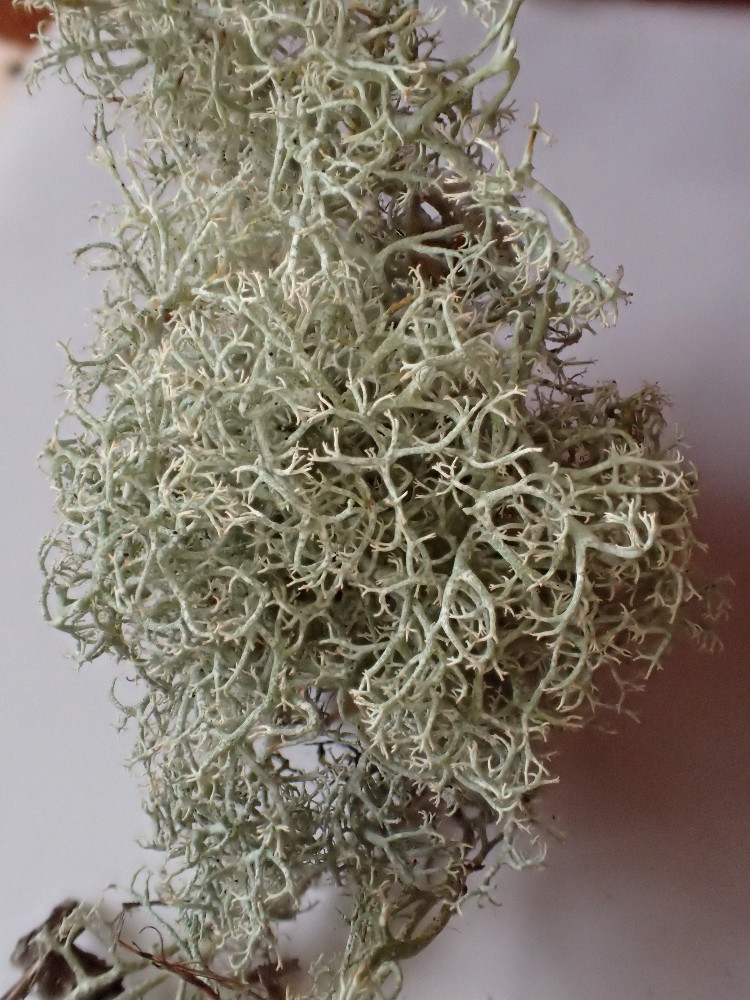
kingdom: Fungi
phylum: Ascomycota
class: Lecanoromycetes
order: Lecanorales
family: Cladoniaceae
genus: Cladonia
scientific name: Cladonia portentosa
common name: hede-rensdyrlav
